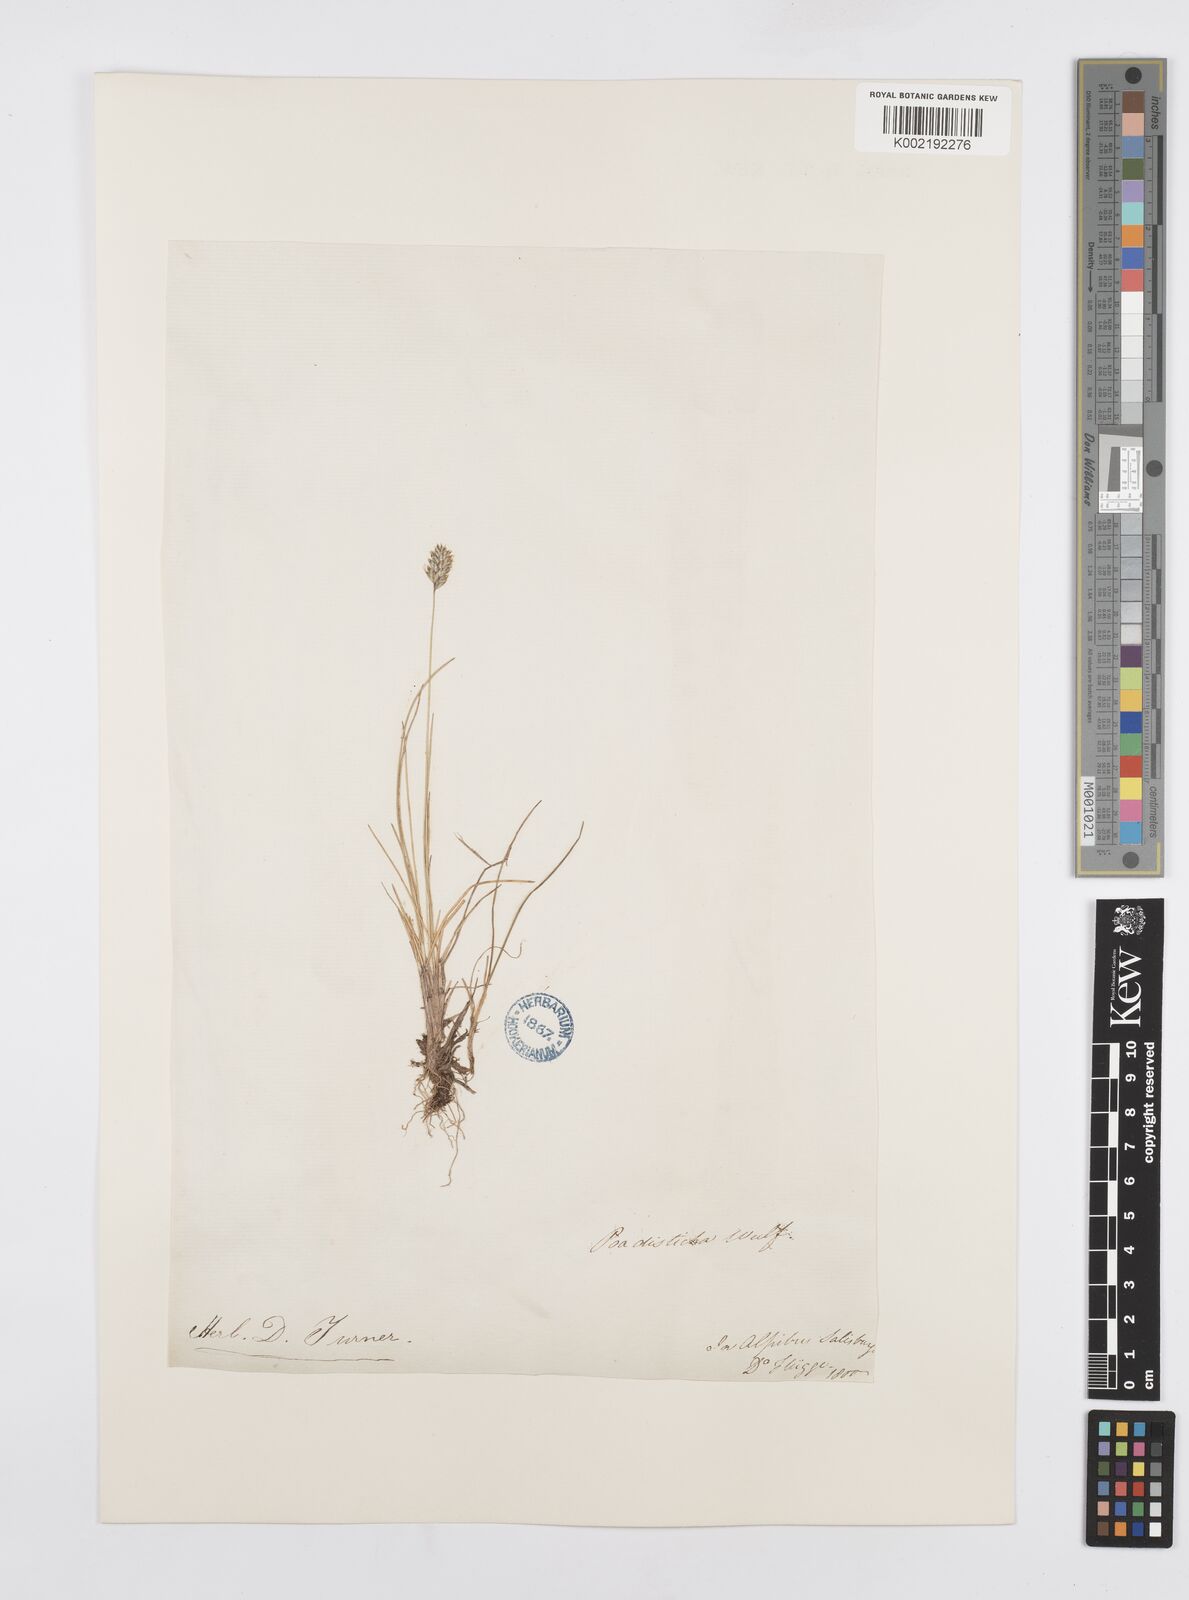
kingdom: Plantae
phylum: Tracheophyta
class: Liliopsida
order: Poales
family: Poaceae
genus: Oreochloa
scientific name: Oreochloa disticha
